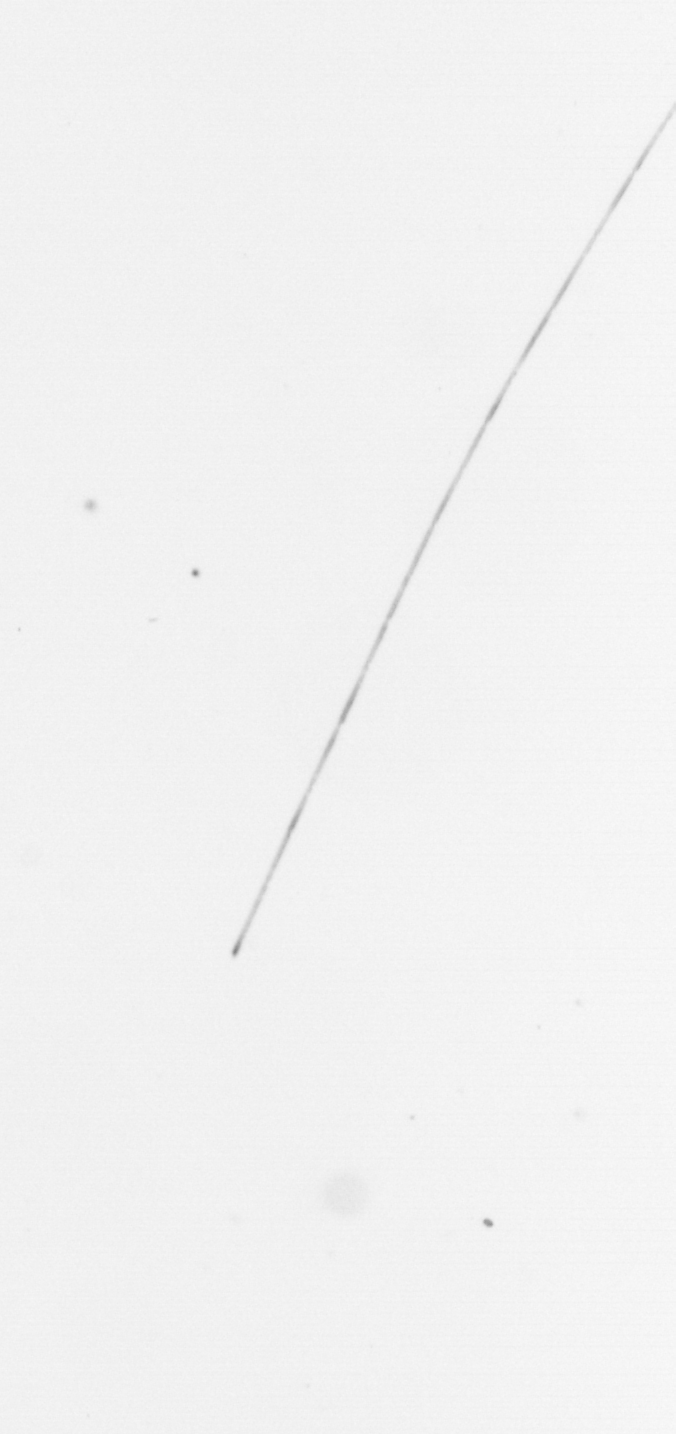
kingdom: Chromista
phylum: Ochrophyta
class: Bacillariophyceae
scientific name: Bacillariophyceae
